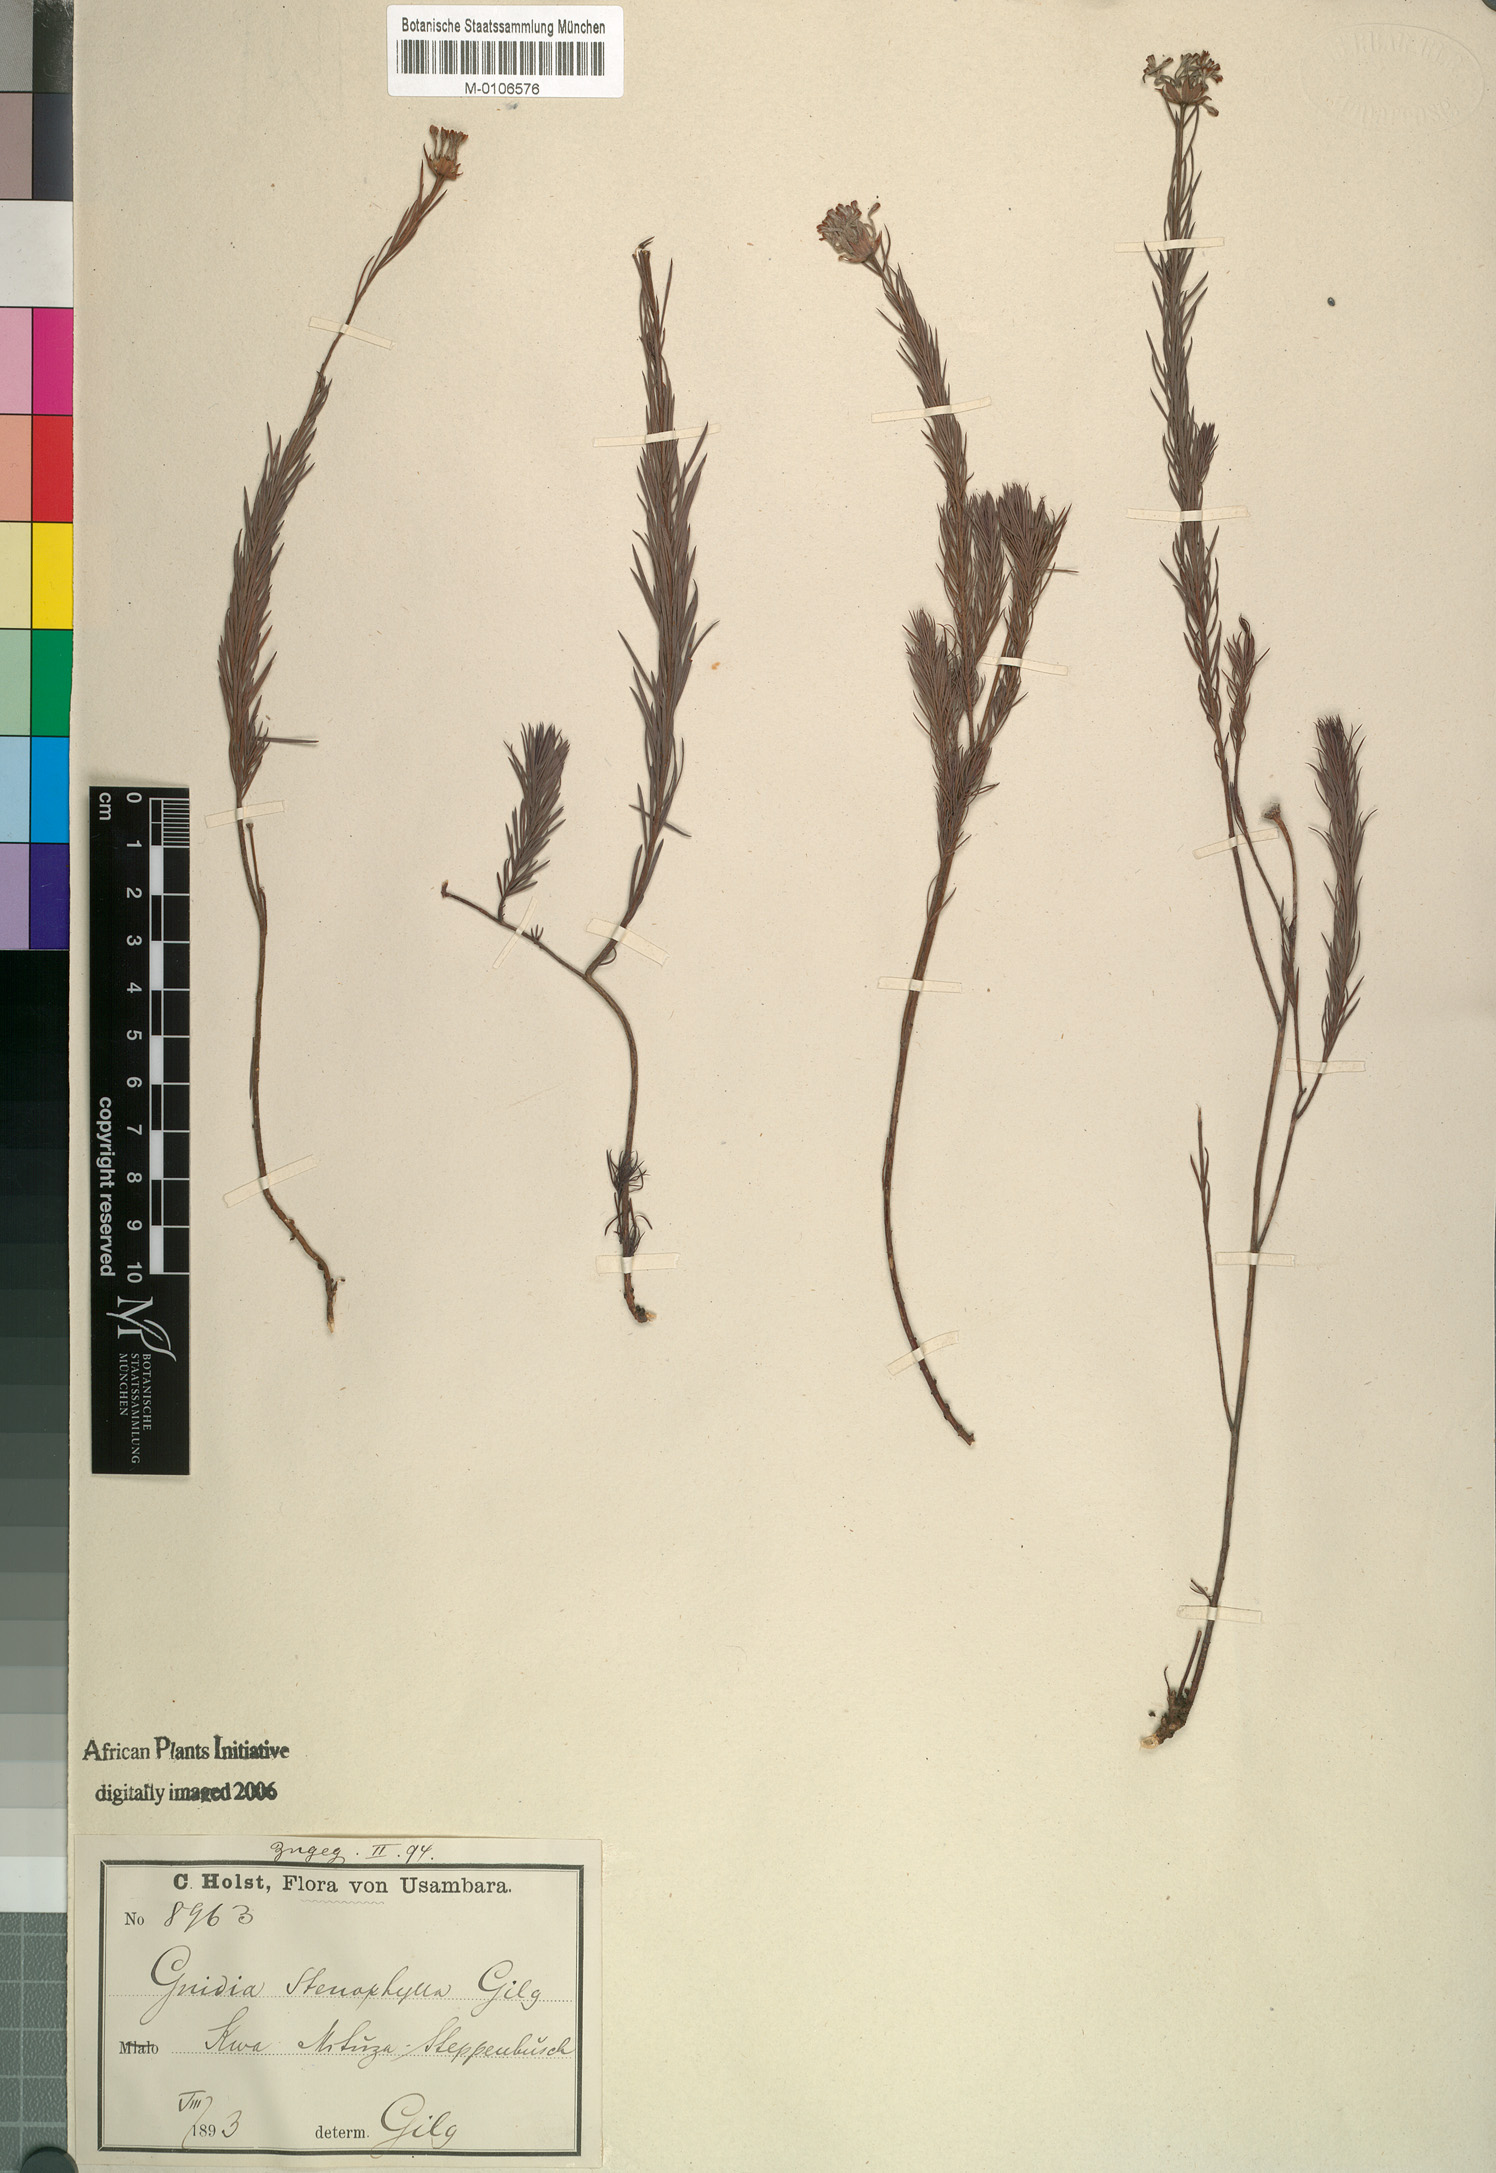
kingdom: Plantae
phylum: Tracheophyta
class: Magnoliopsida
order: Malvales
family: Thymelaeaceae
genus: Gnidia
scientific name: Gnidia stenophylla
